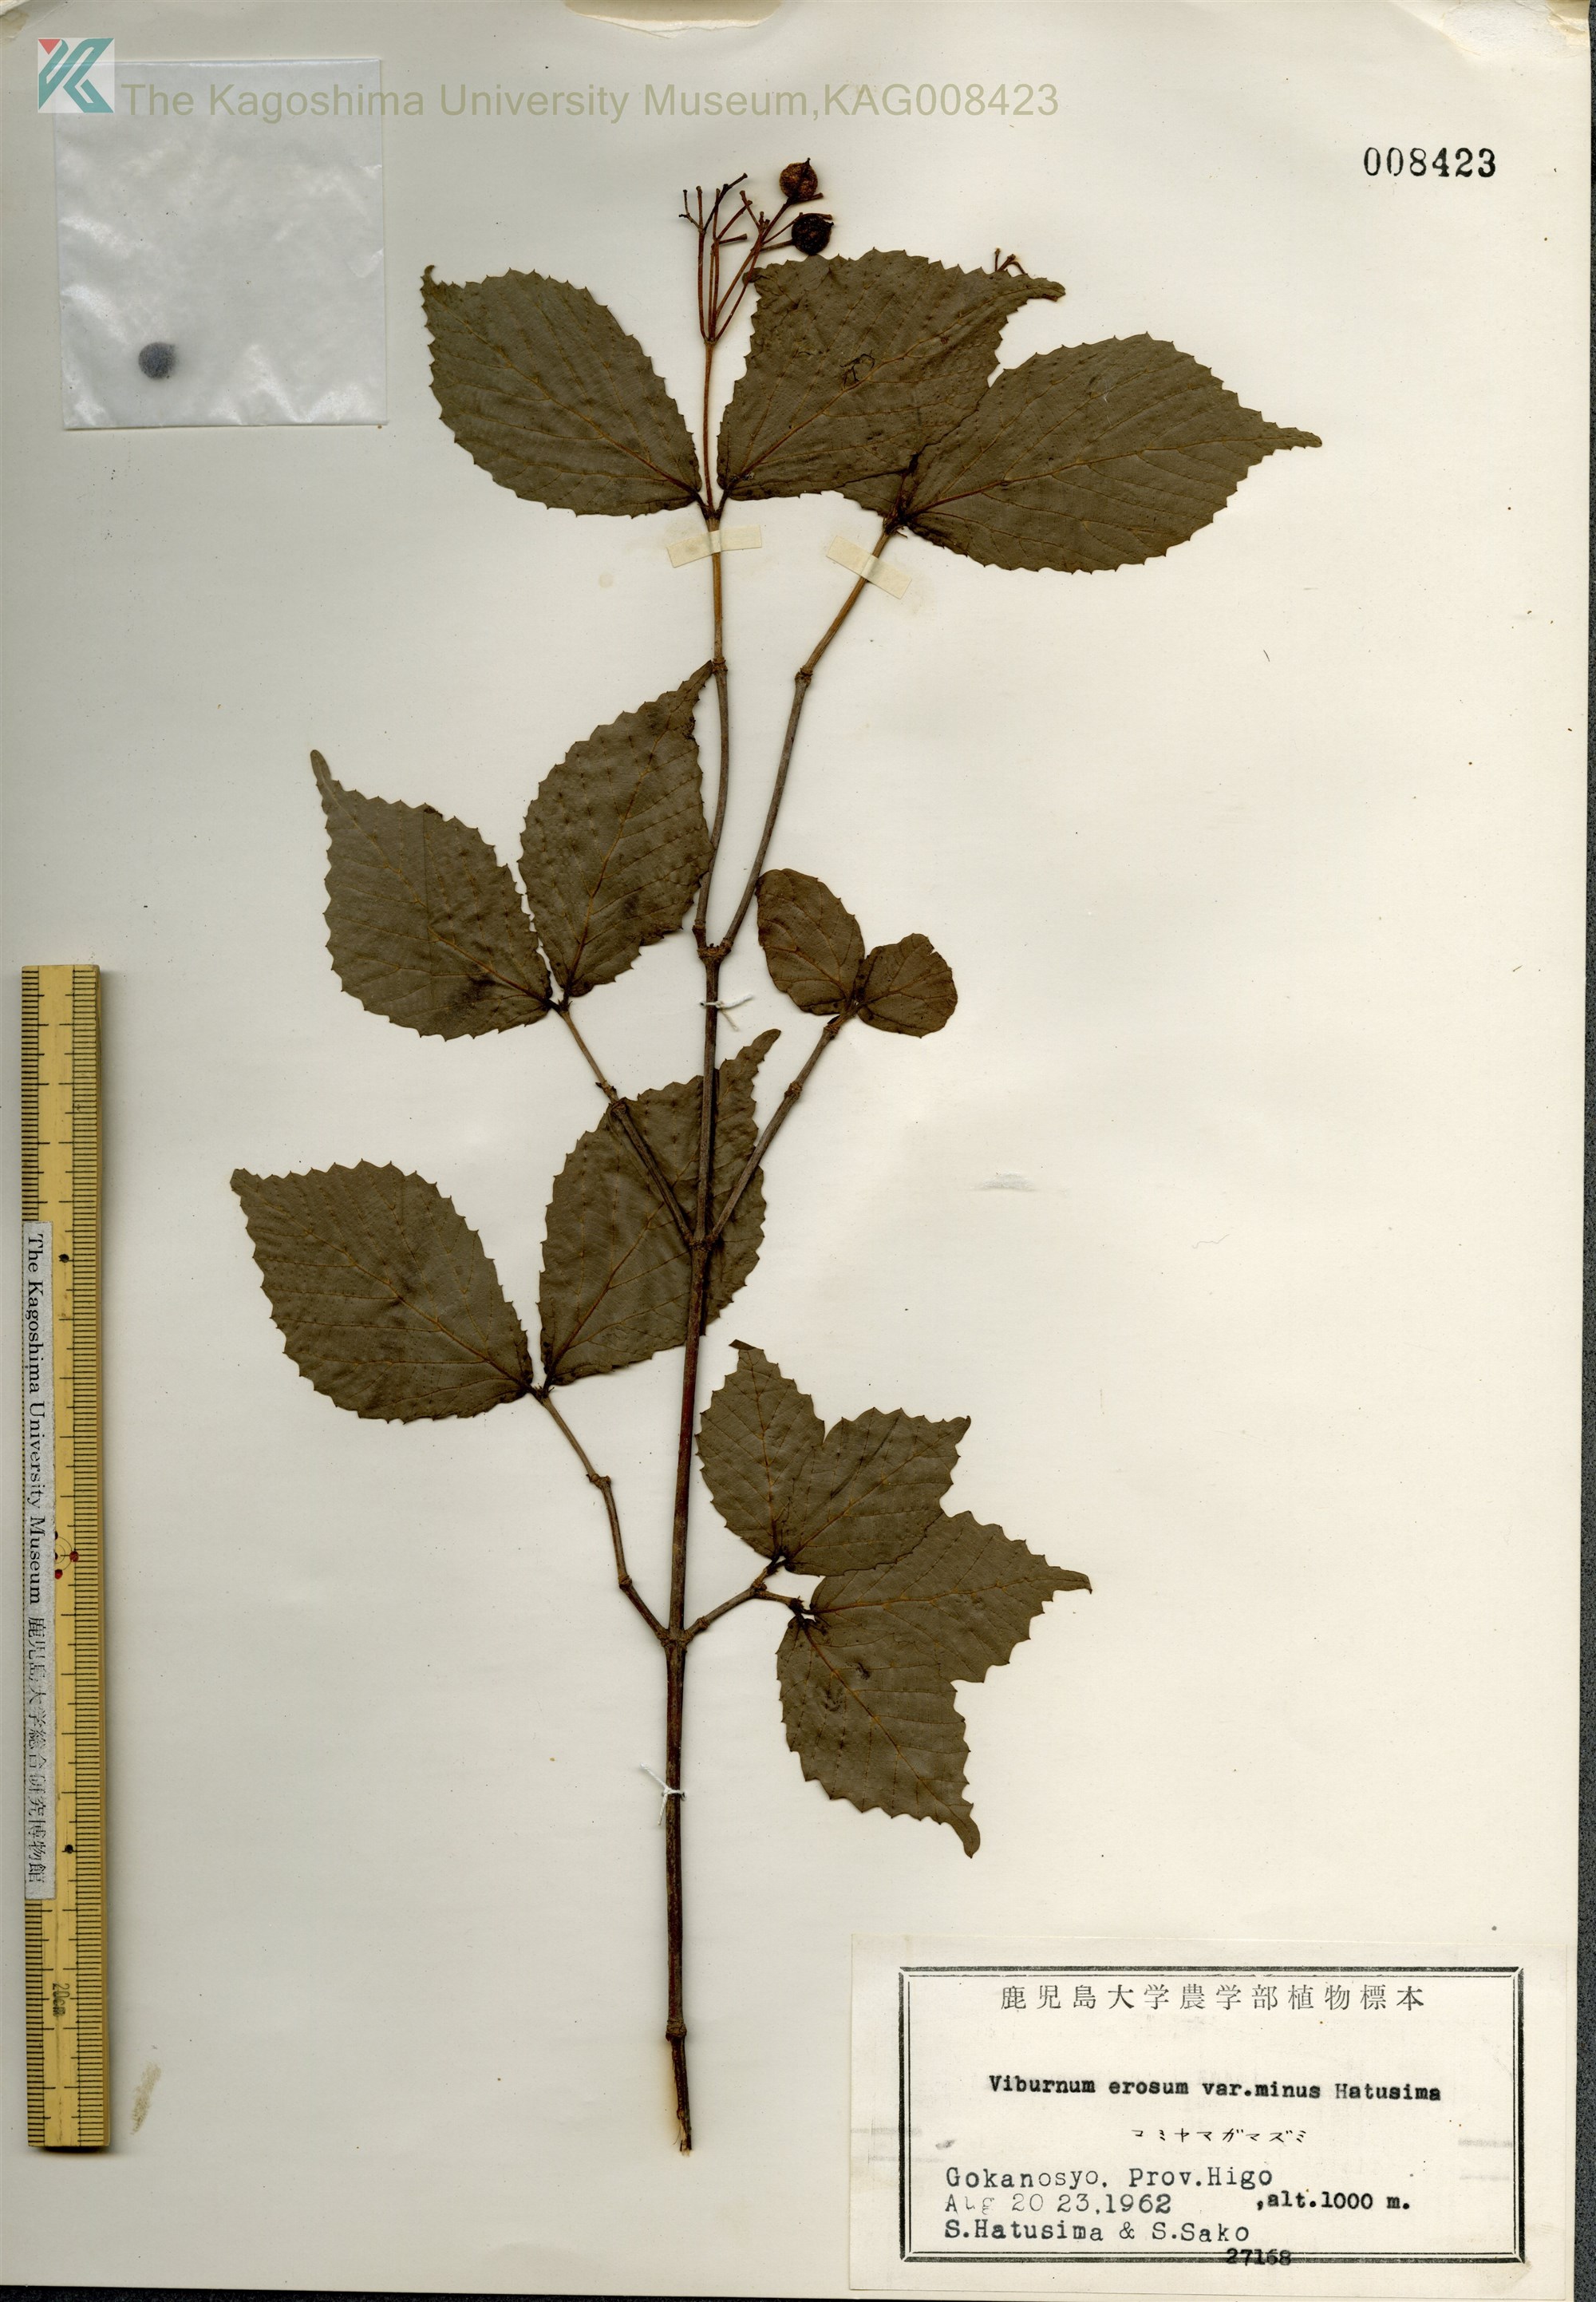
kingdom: Plantae
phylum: Tracheophyta
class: Magnoliopsida
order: Dipsacales
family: Viburnaceae
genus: Viburnum
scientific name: Viburnum erosum
